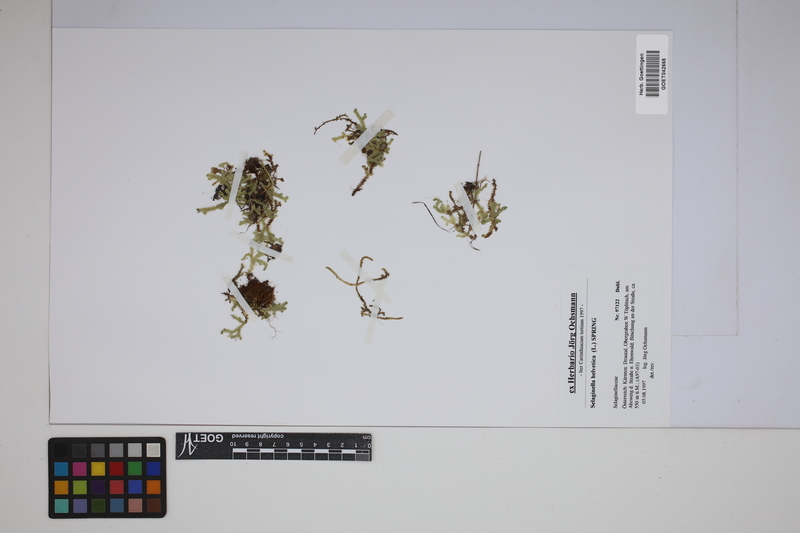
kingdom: Plantae
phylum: Tracheophyta
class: Lycopodiopsida
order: Selaginellales
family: Selaginellaceae
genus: Selaginella
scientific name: Selaginella helvetica
